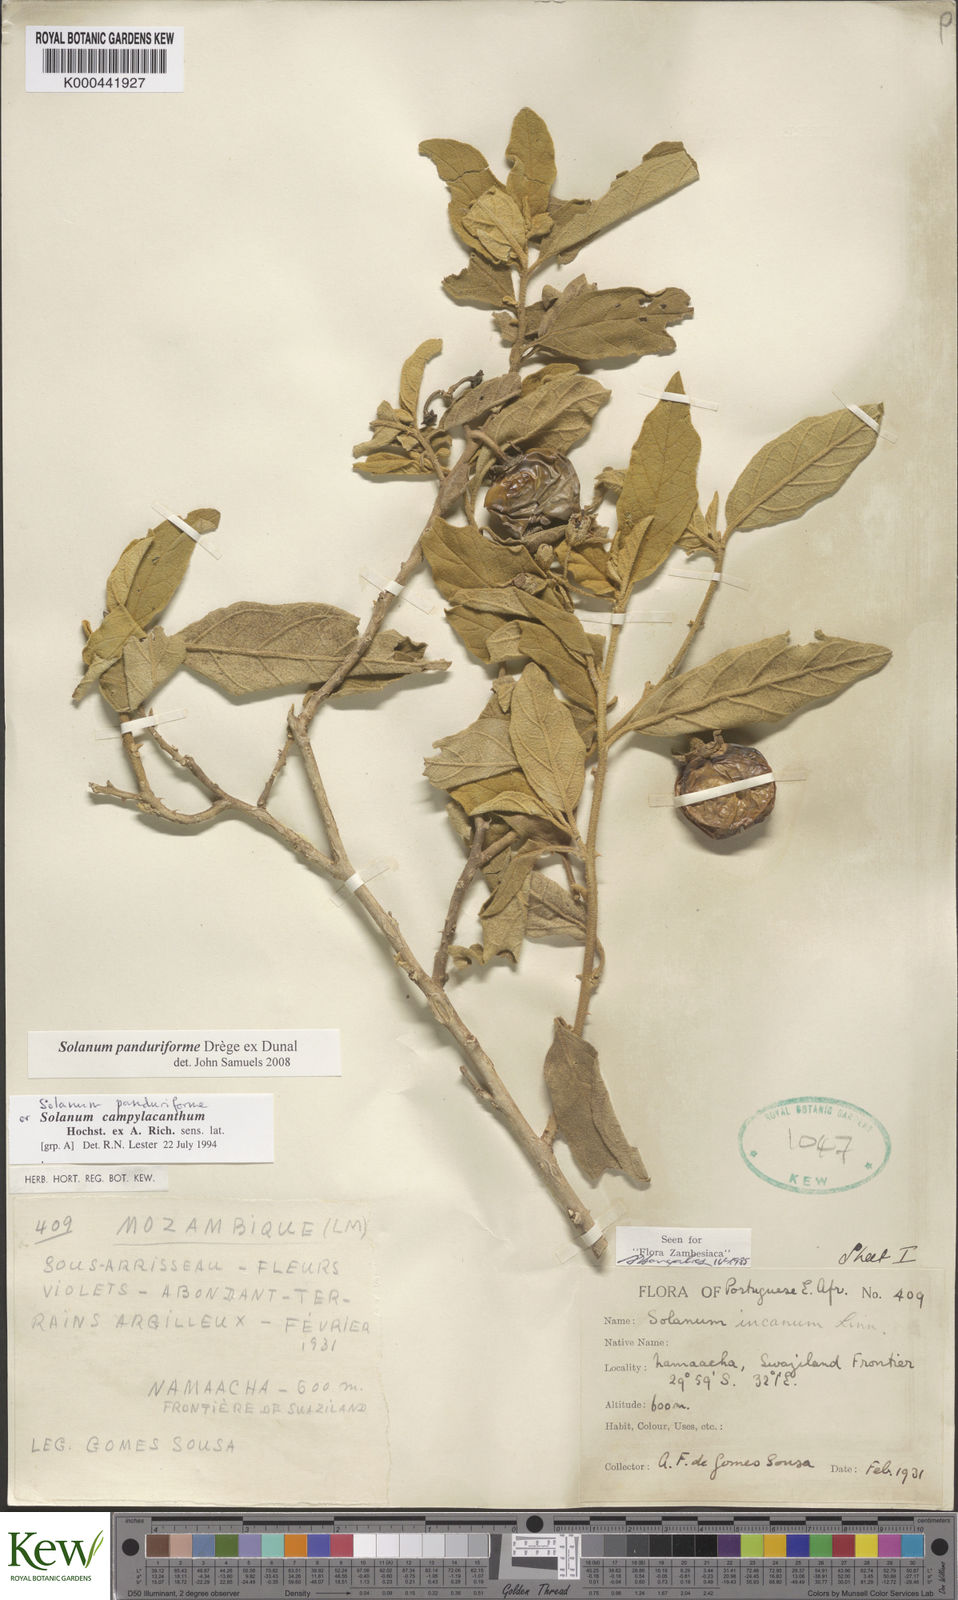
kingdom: Plantae
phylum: Tracheophyta
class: Magnoliopsida
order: Solanales
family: Solanaceae
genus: Solanum
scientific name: Solanum campylacanthum
